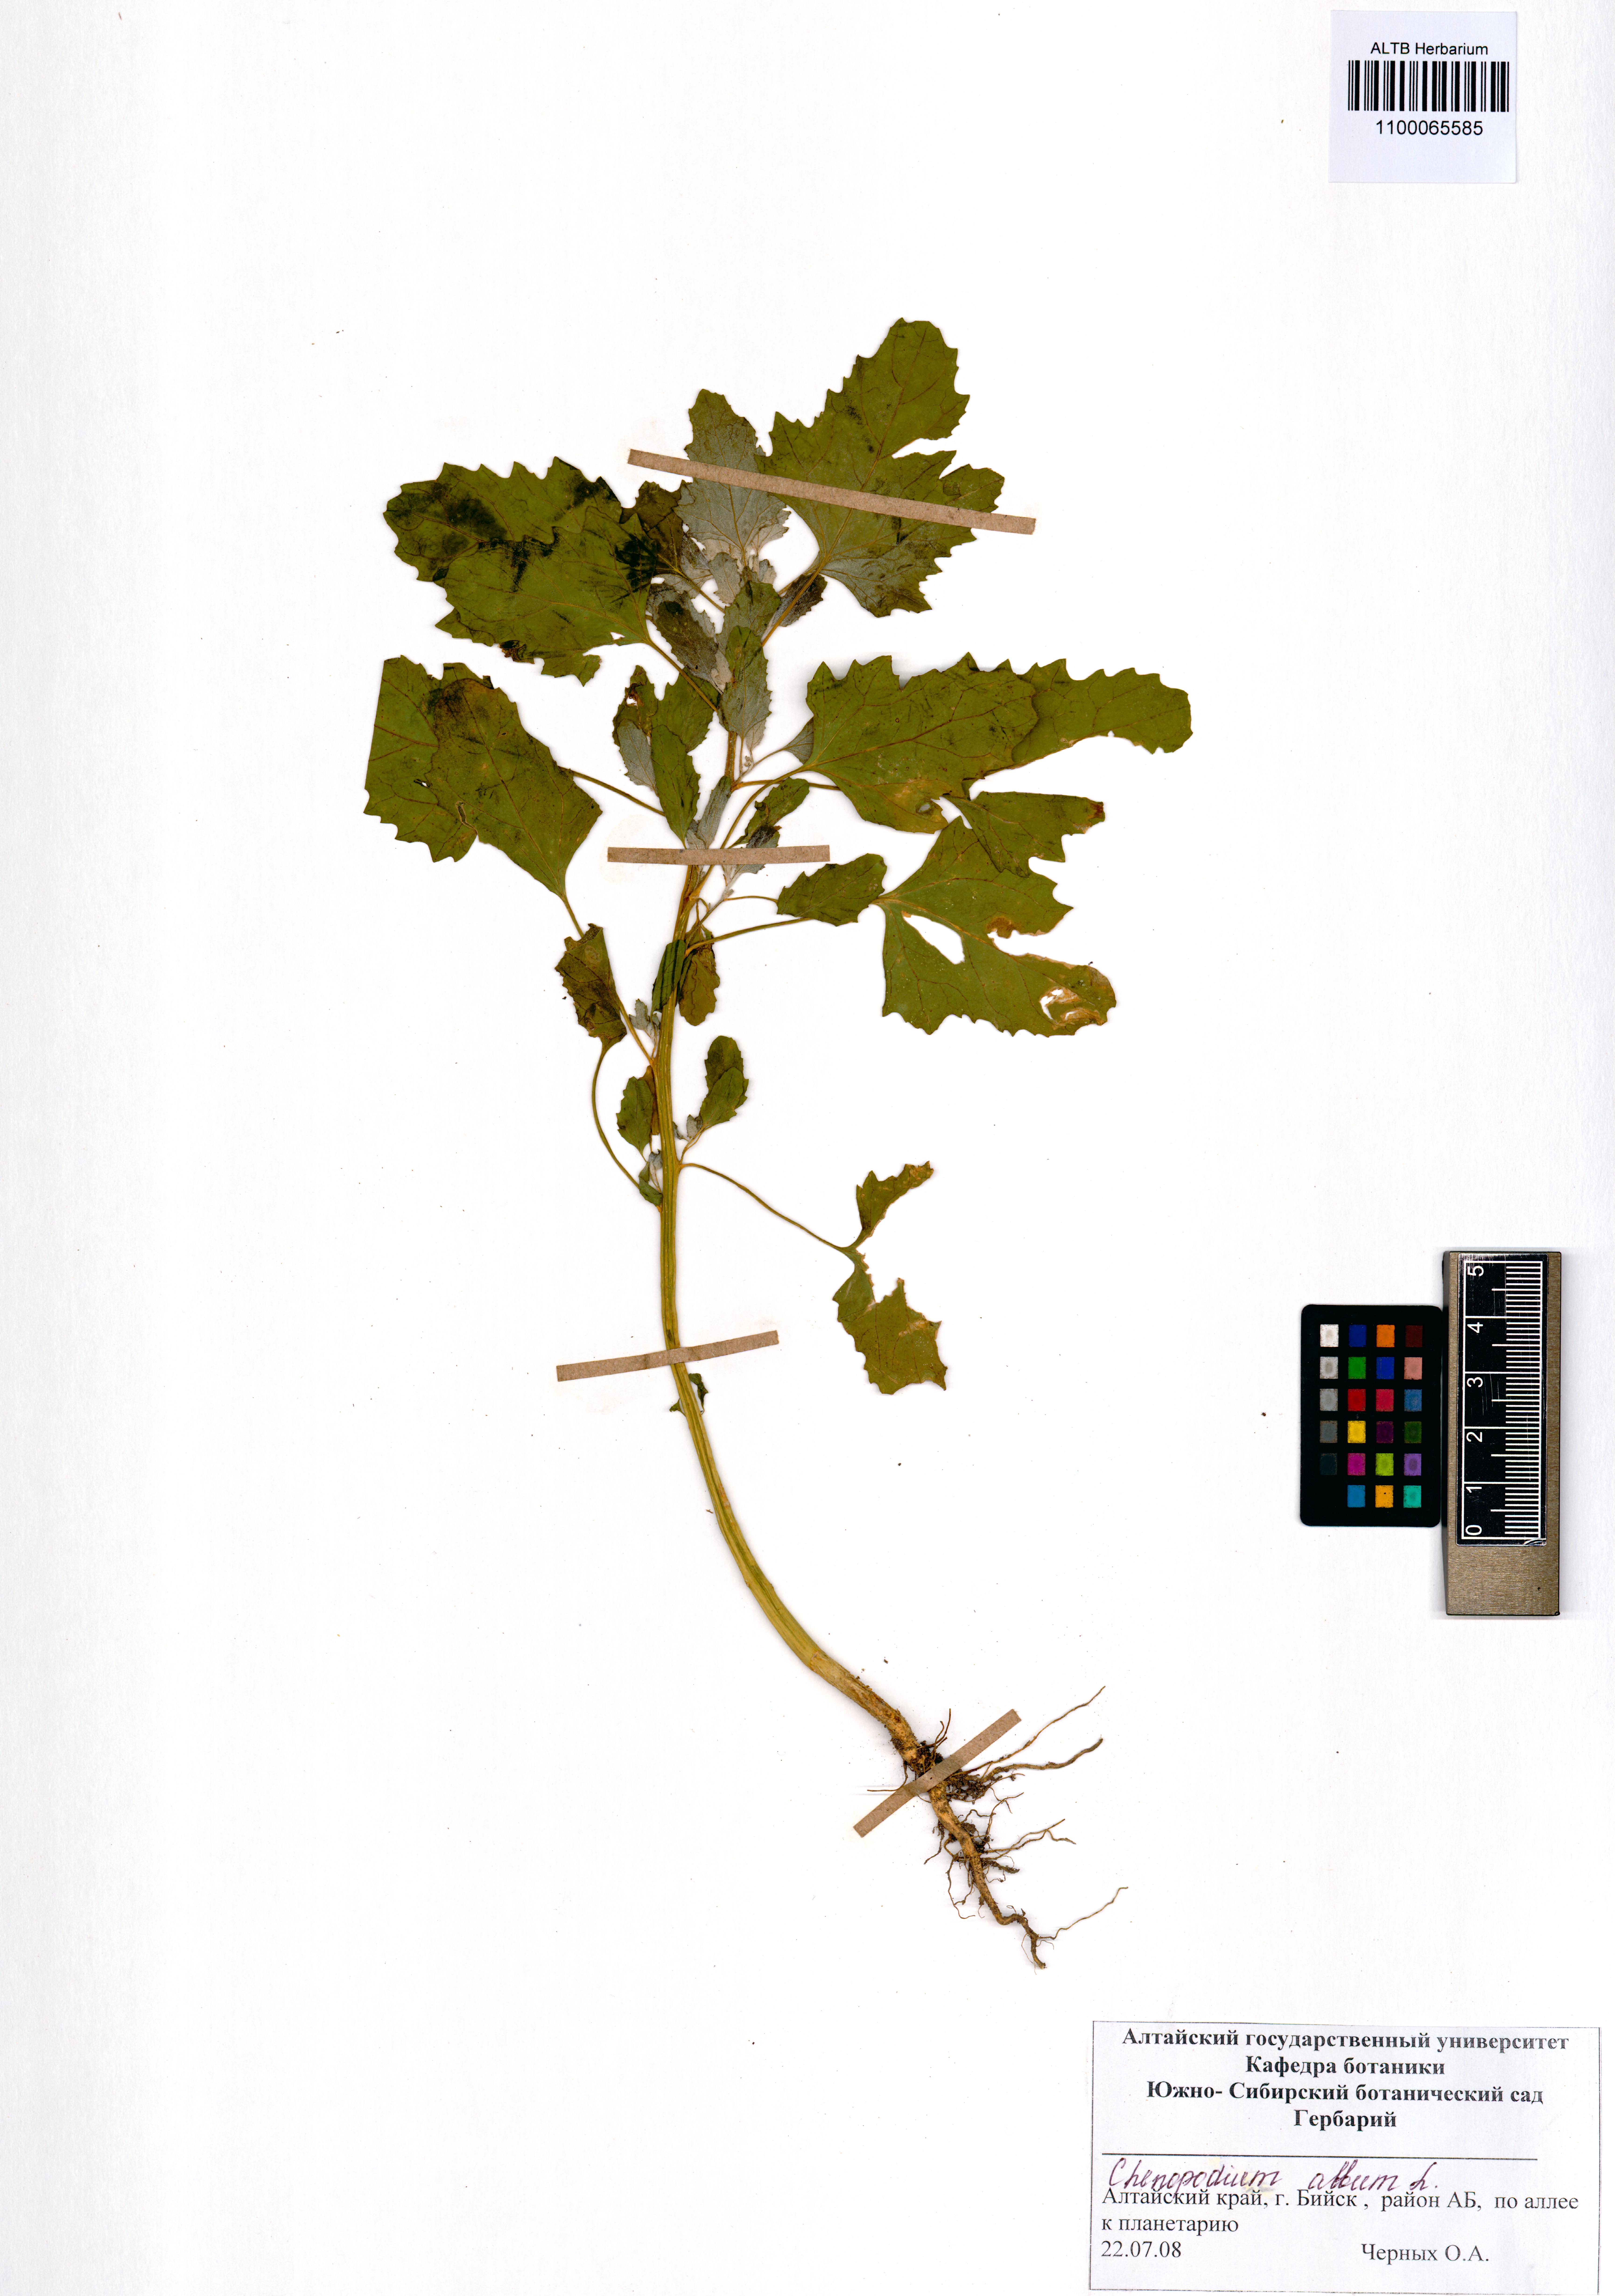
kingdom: Plantae
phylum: Tracheophyta
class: Magnoliopsida
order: Caryophyllales
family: Amaranthaceae
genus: Chenopodium
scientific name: Chenopodium album
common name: Fat-hen
